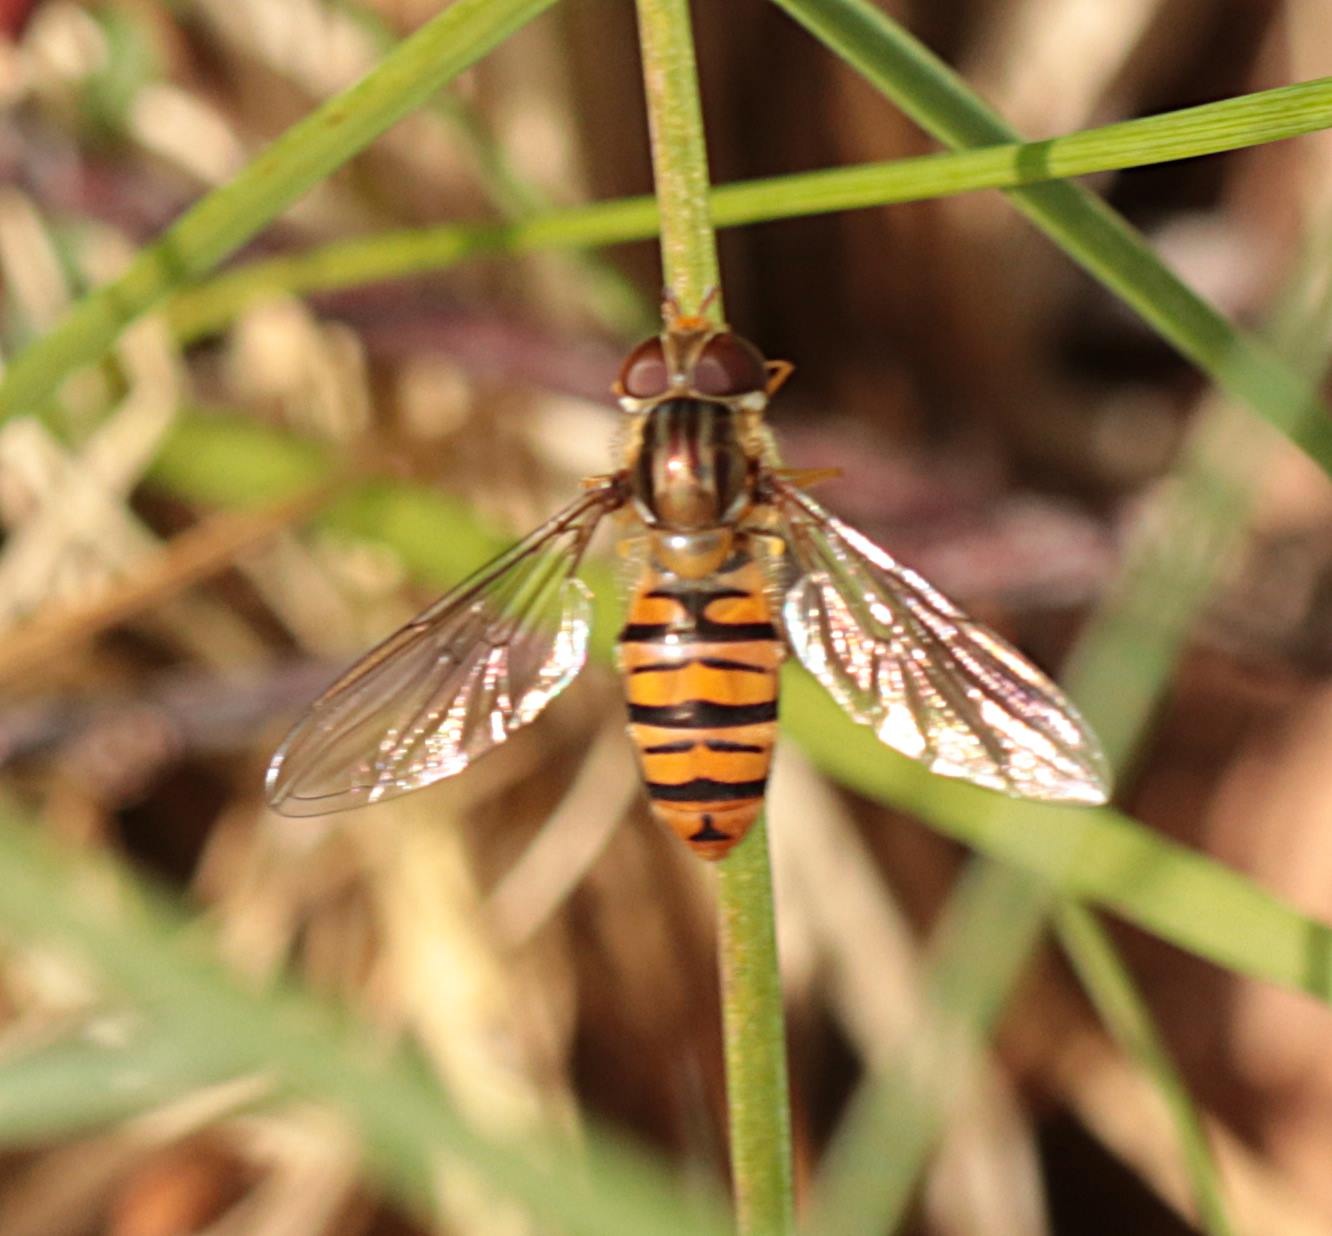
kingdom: Animalia
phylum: Arthropoda
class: Insecta
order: Diptera
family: Syrphidae
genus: Episyrphus
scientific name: Episyrphus balteatus
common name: Dobbeltbåndet svirreflue
